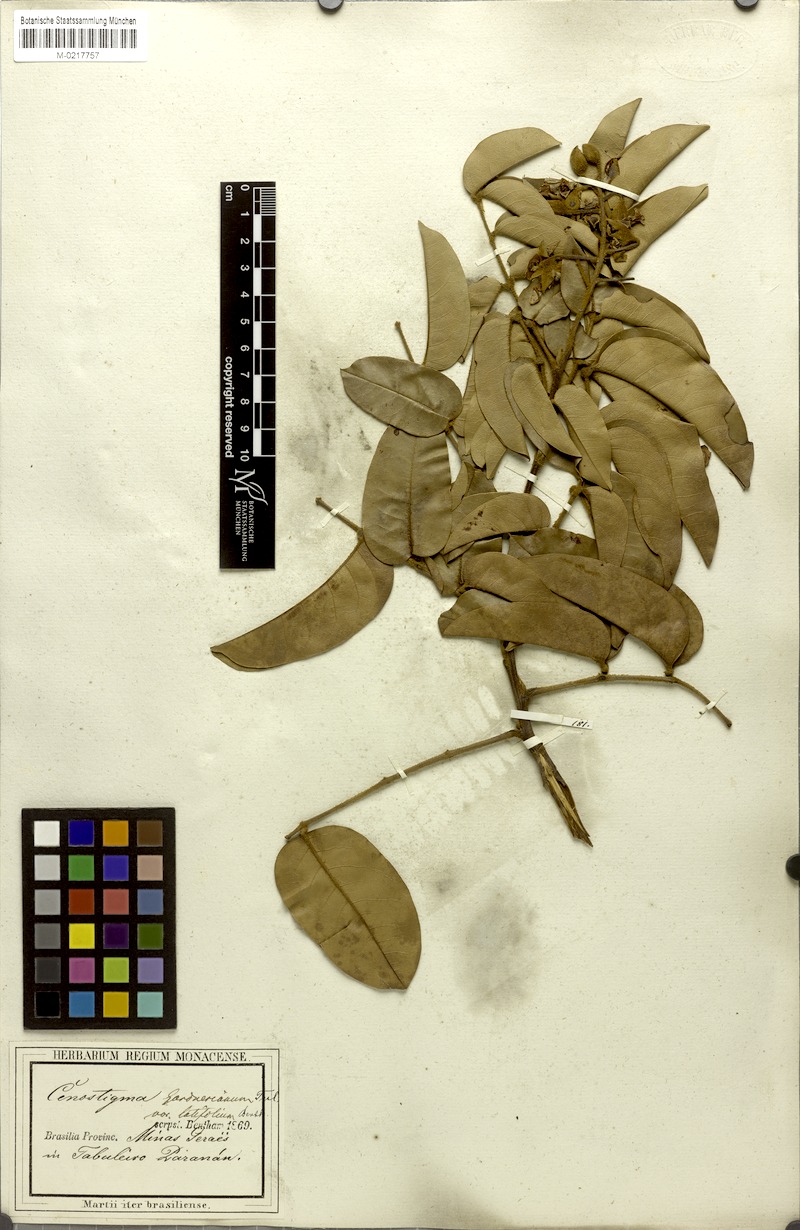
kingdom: Plantae
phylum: Tracheophyta
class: Magnoliopsida
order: Fabales
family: Fabaceae
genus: Cenostigma
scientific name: Cenostigma macrophyllum
